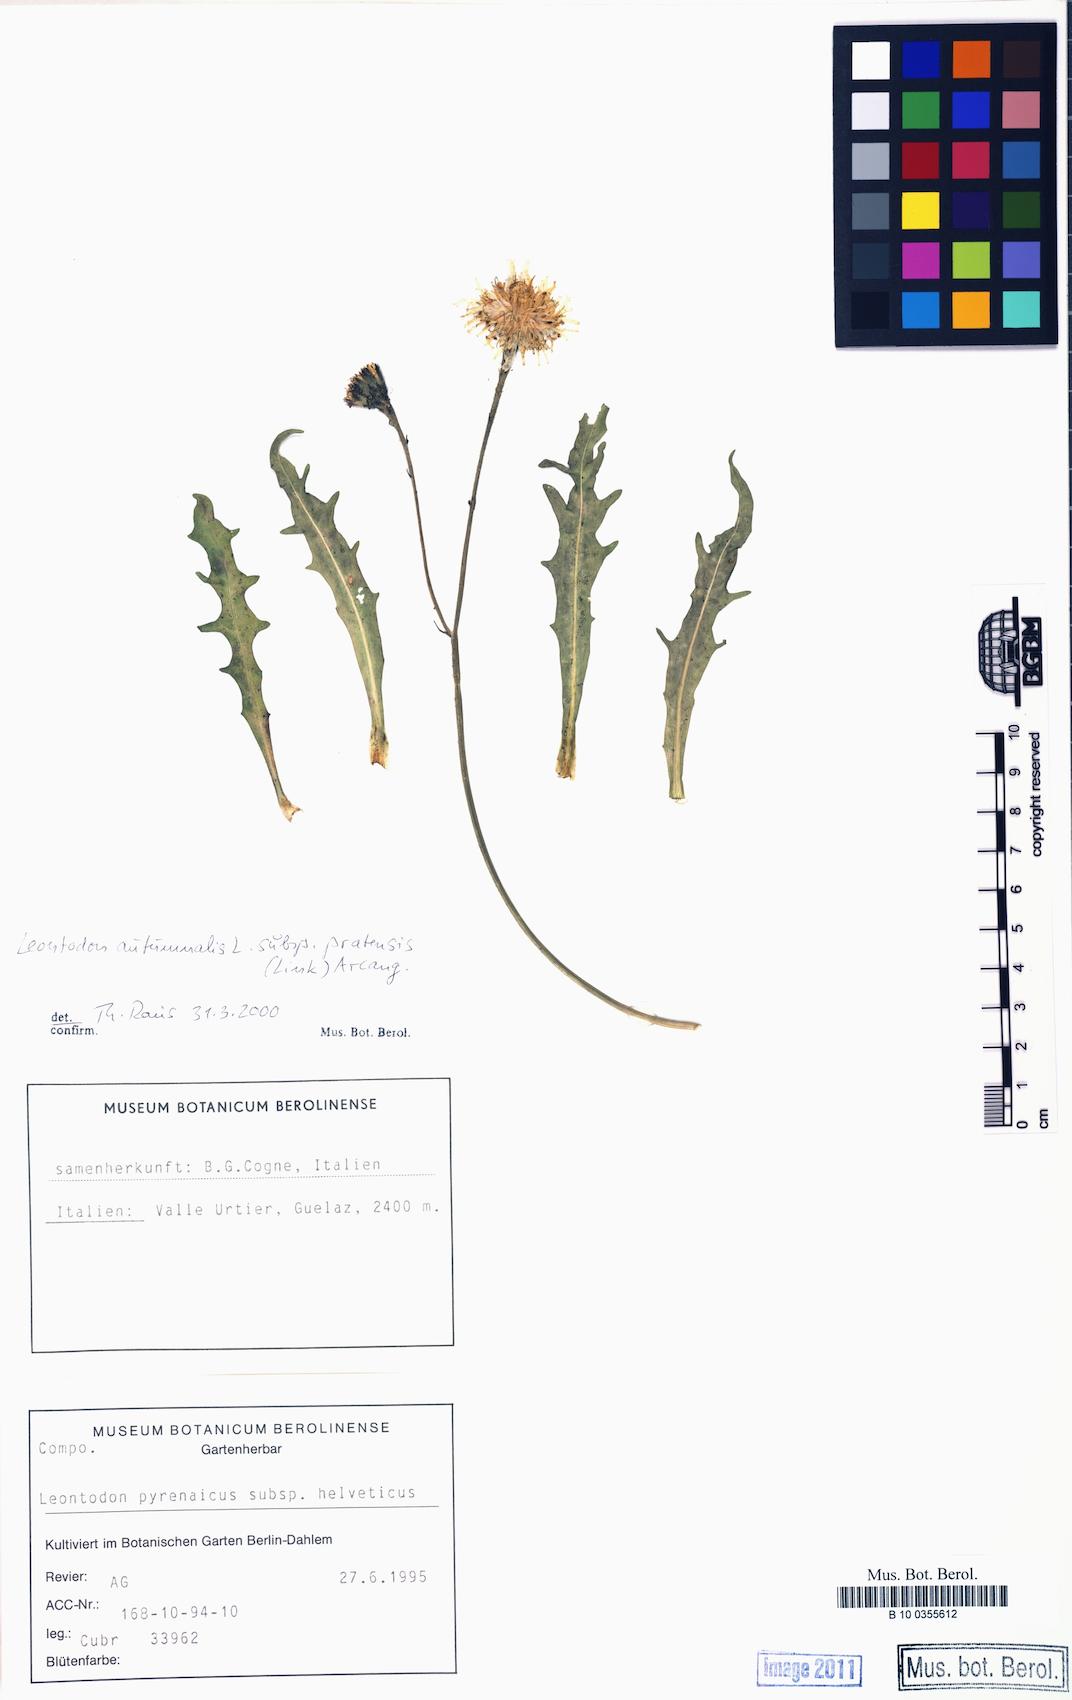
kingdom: Plantae
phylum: Tracheophyta
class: Magnoliopsida
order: Asterales
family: Asteraceae
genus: Scorzoneroides
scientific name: Scorzoneroides autumnalis
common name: Autumn hawkbit
